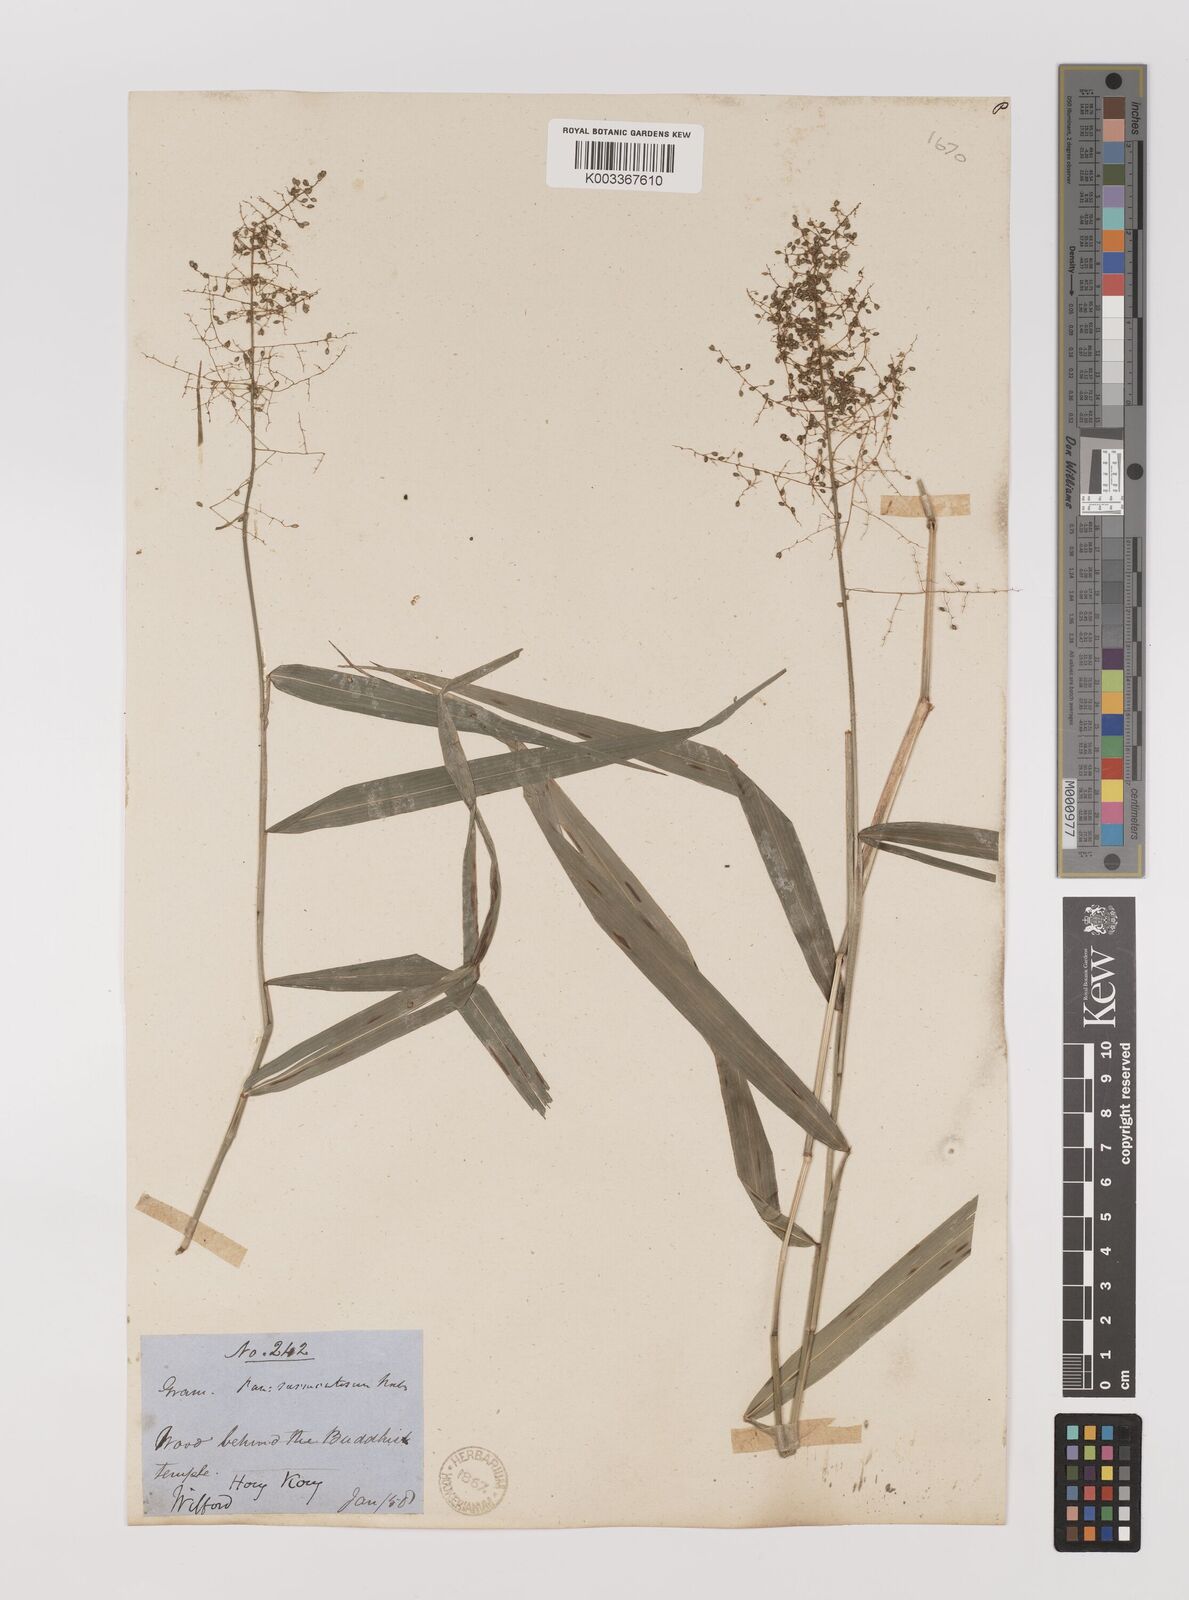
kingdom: Plantae
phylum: Tracheophyta
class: Liliopsida
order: Poales
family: Poaceae
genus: Panicum
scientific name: Panicum incomtum
